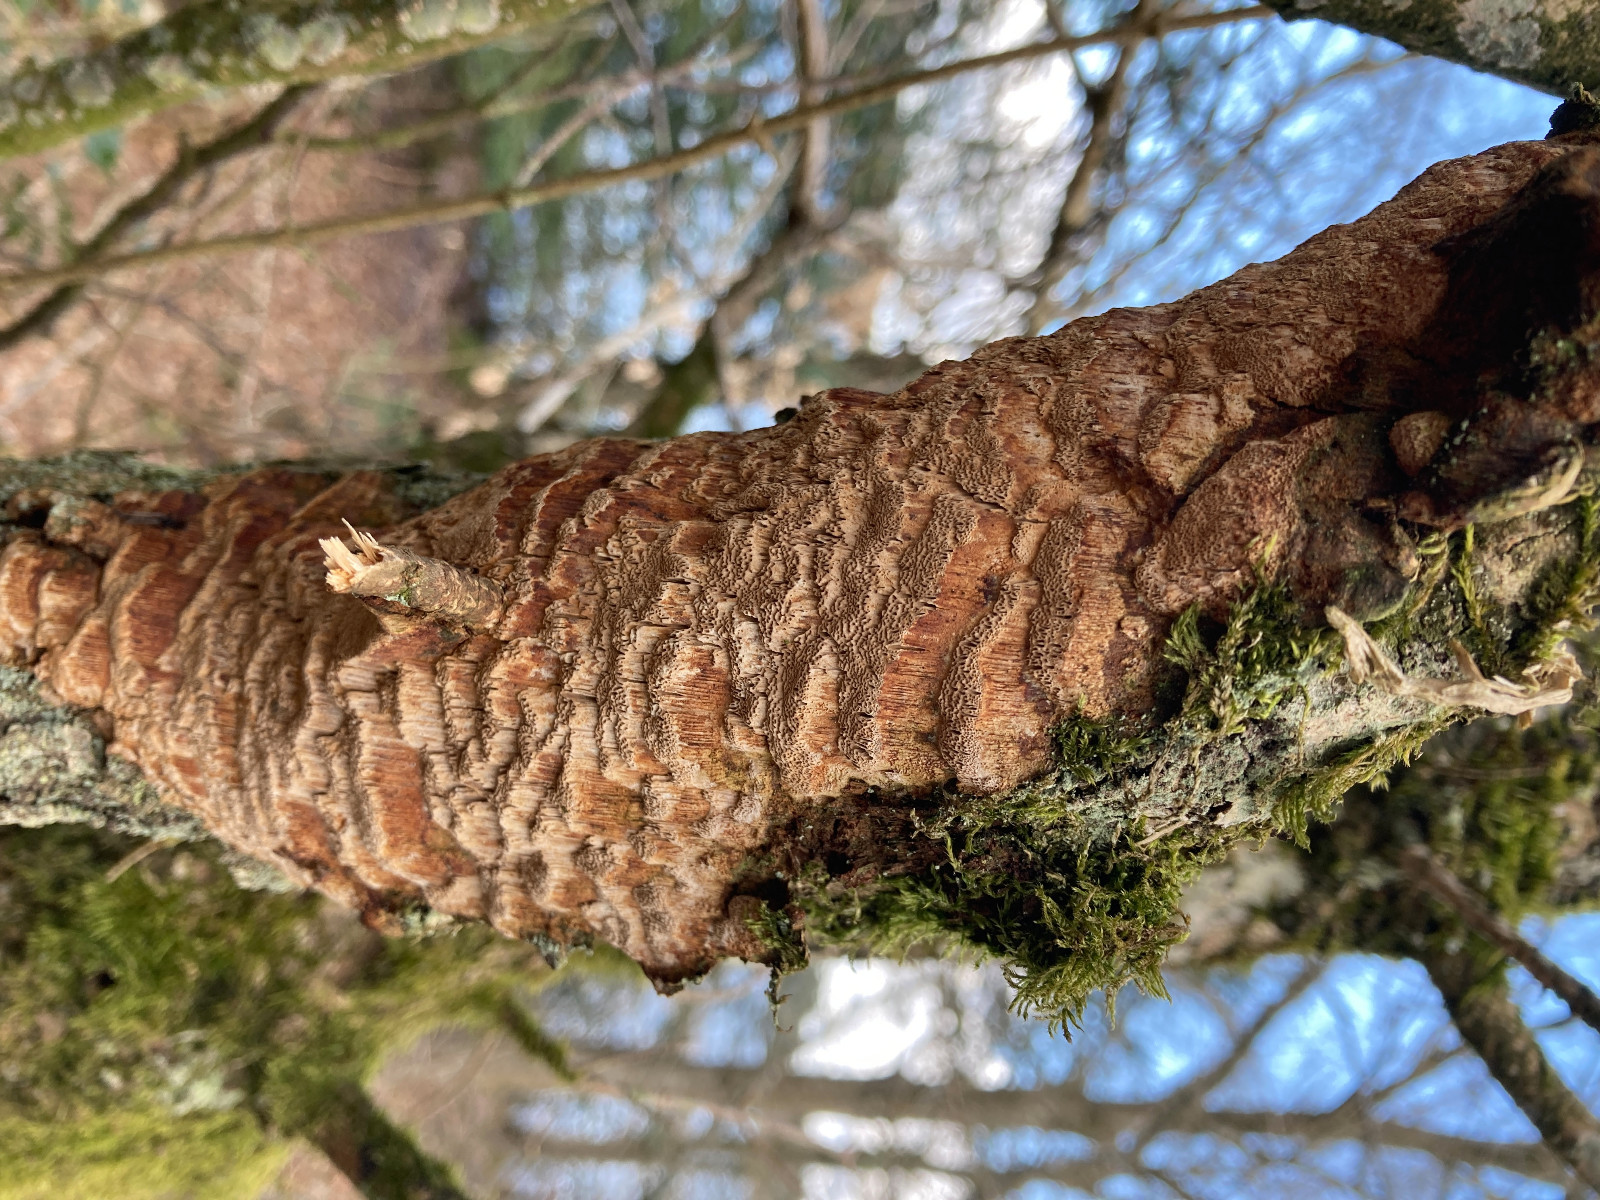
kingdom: Fungi
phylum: Basidiomycota
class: Agaricomycetes
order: Hymenochaetales
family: Hymenochaetaceae
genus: Fuscoporia
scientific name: Fuscoporia ferrea
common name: skorpe-ildporesvamp
